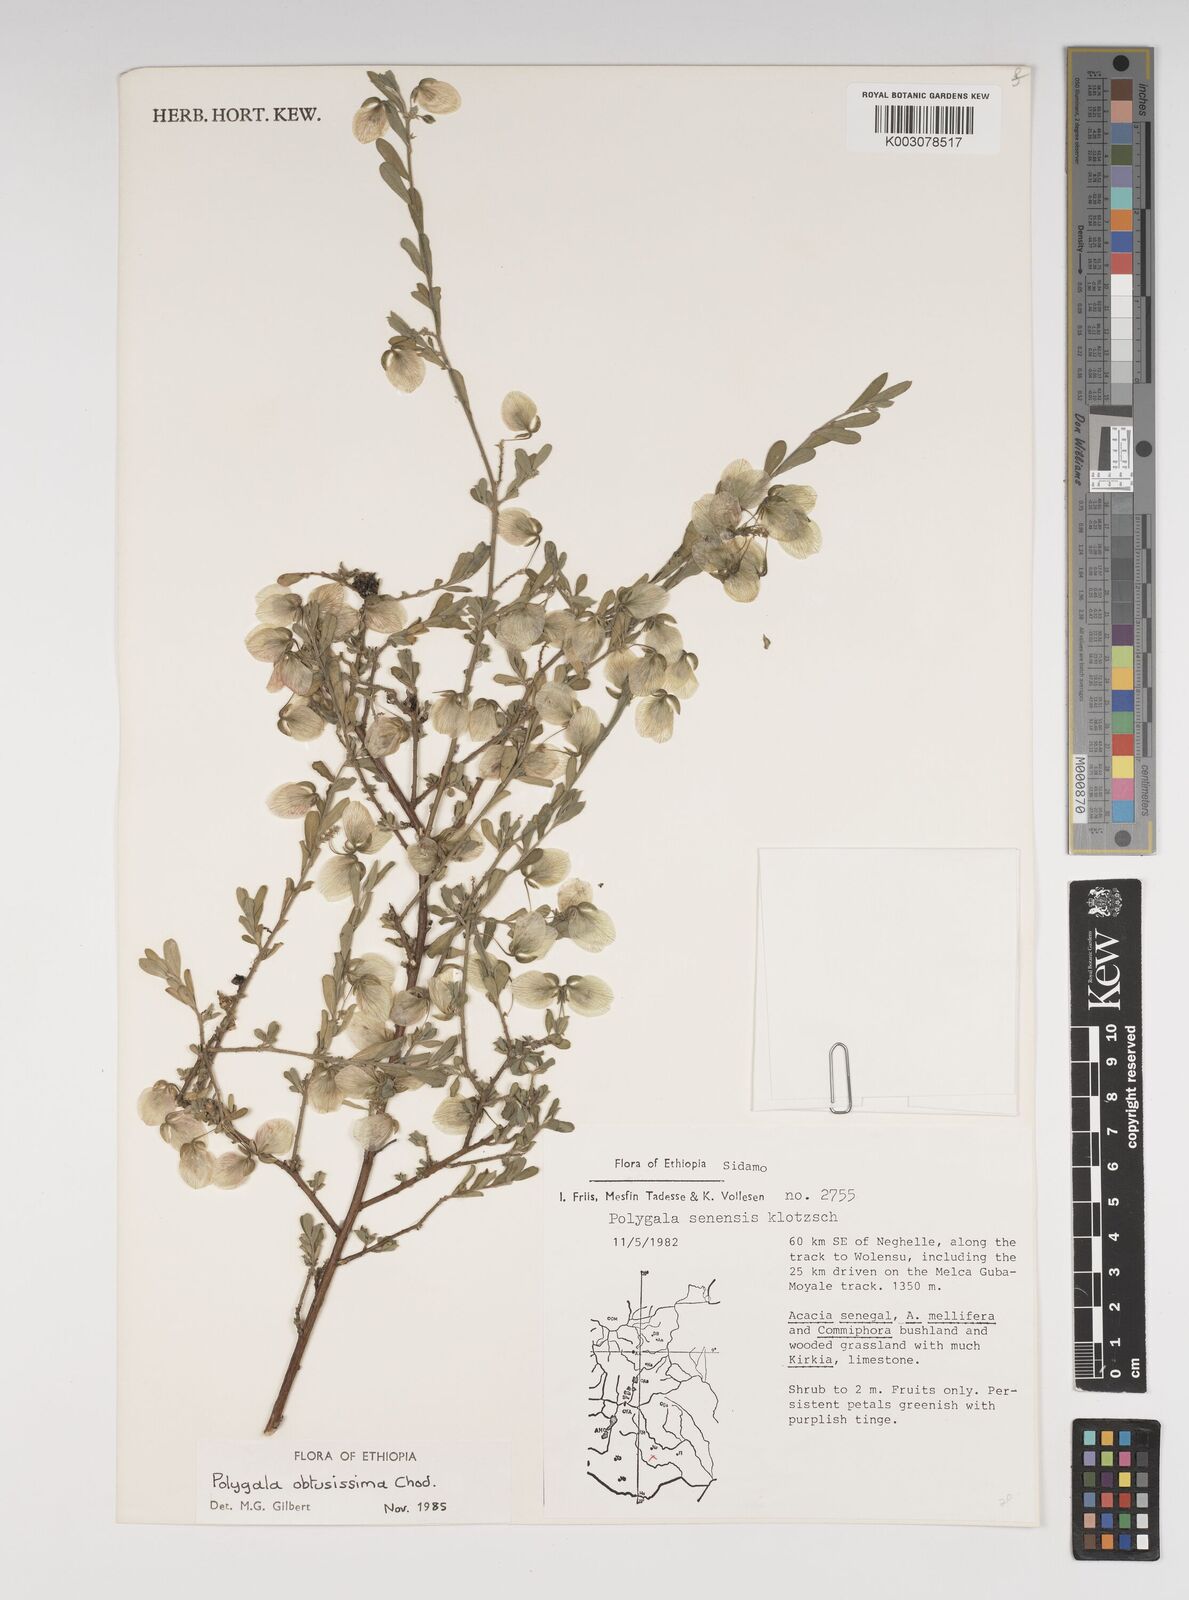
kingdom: Plantae
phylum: Tracheophyta
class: Magnoliopsida
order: Fabales
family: Polygalaceae
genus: Polygala
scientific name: Polygala senensis
